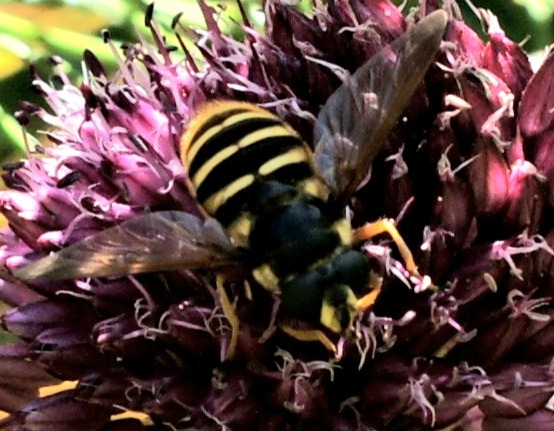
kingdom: Animalia
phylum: Arthropoda
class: Insecta
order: Diptera
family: Syrphidae
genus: Sericomyia
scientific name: Sericomyia silentis
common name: Tørve-silkesvirreflue
